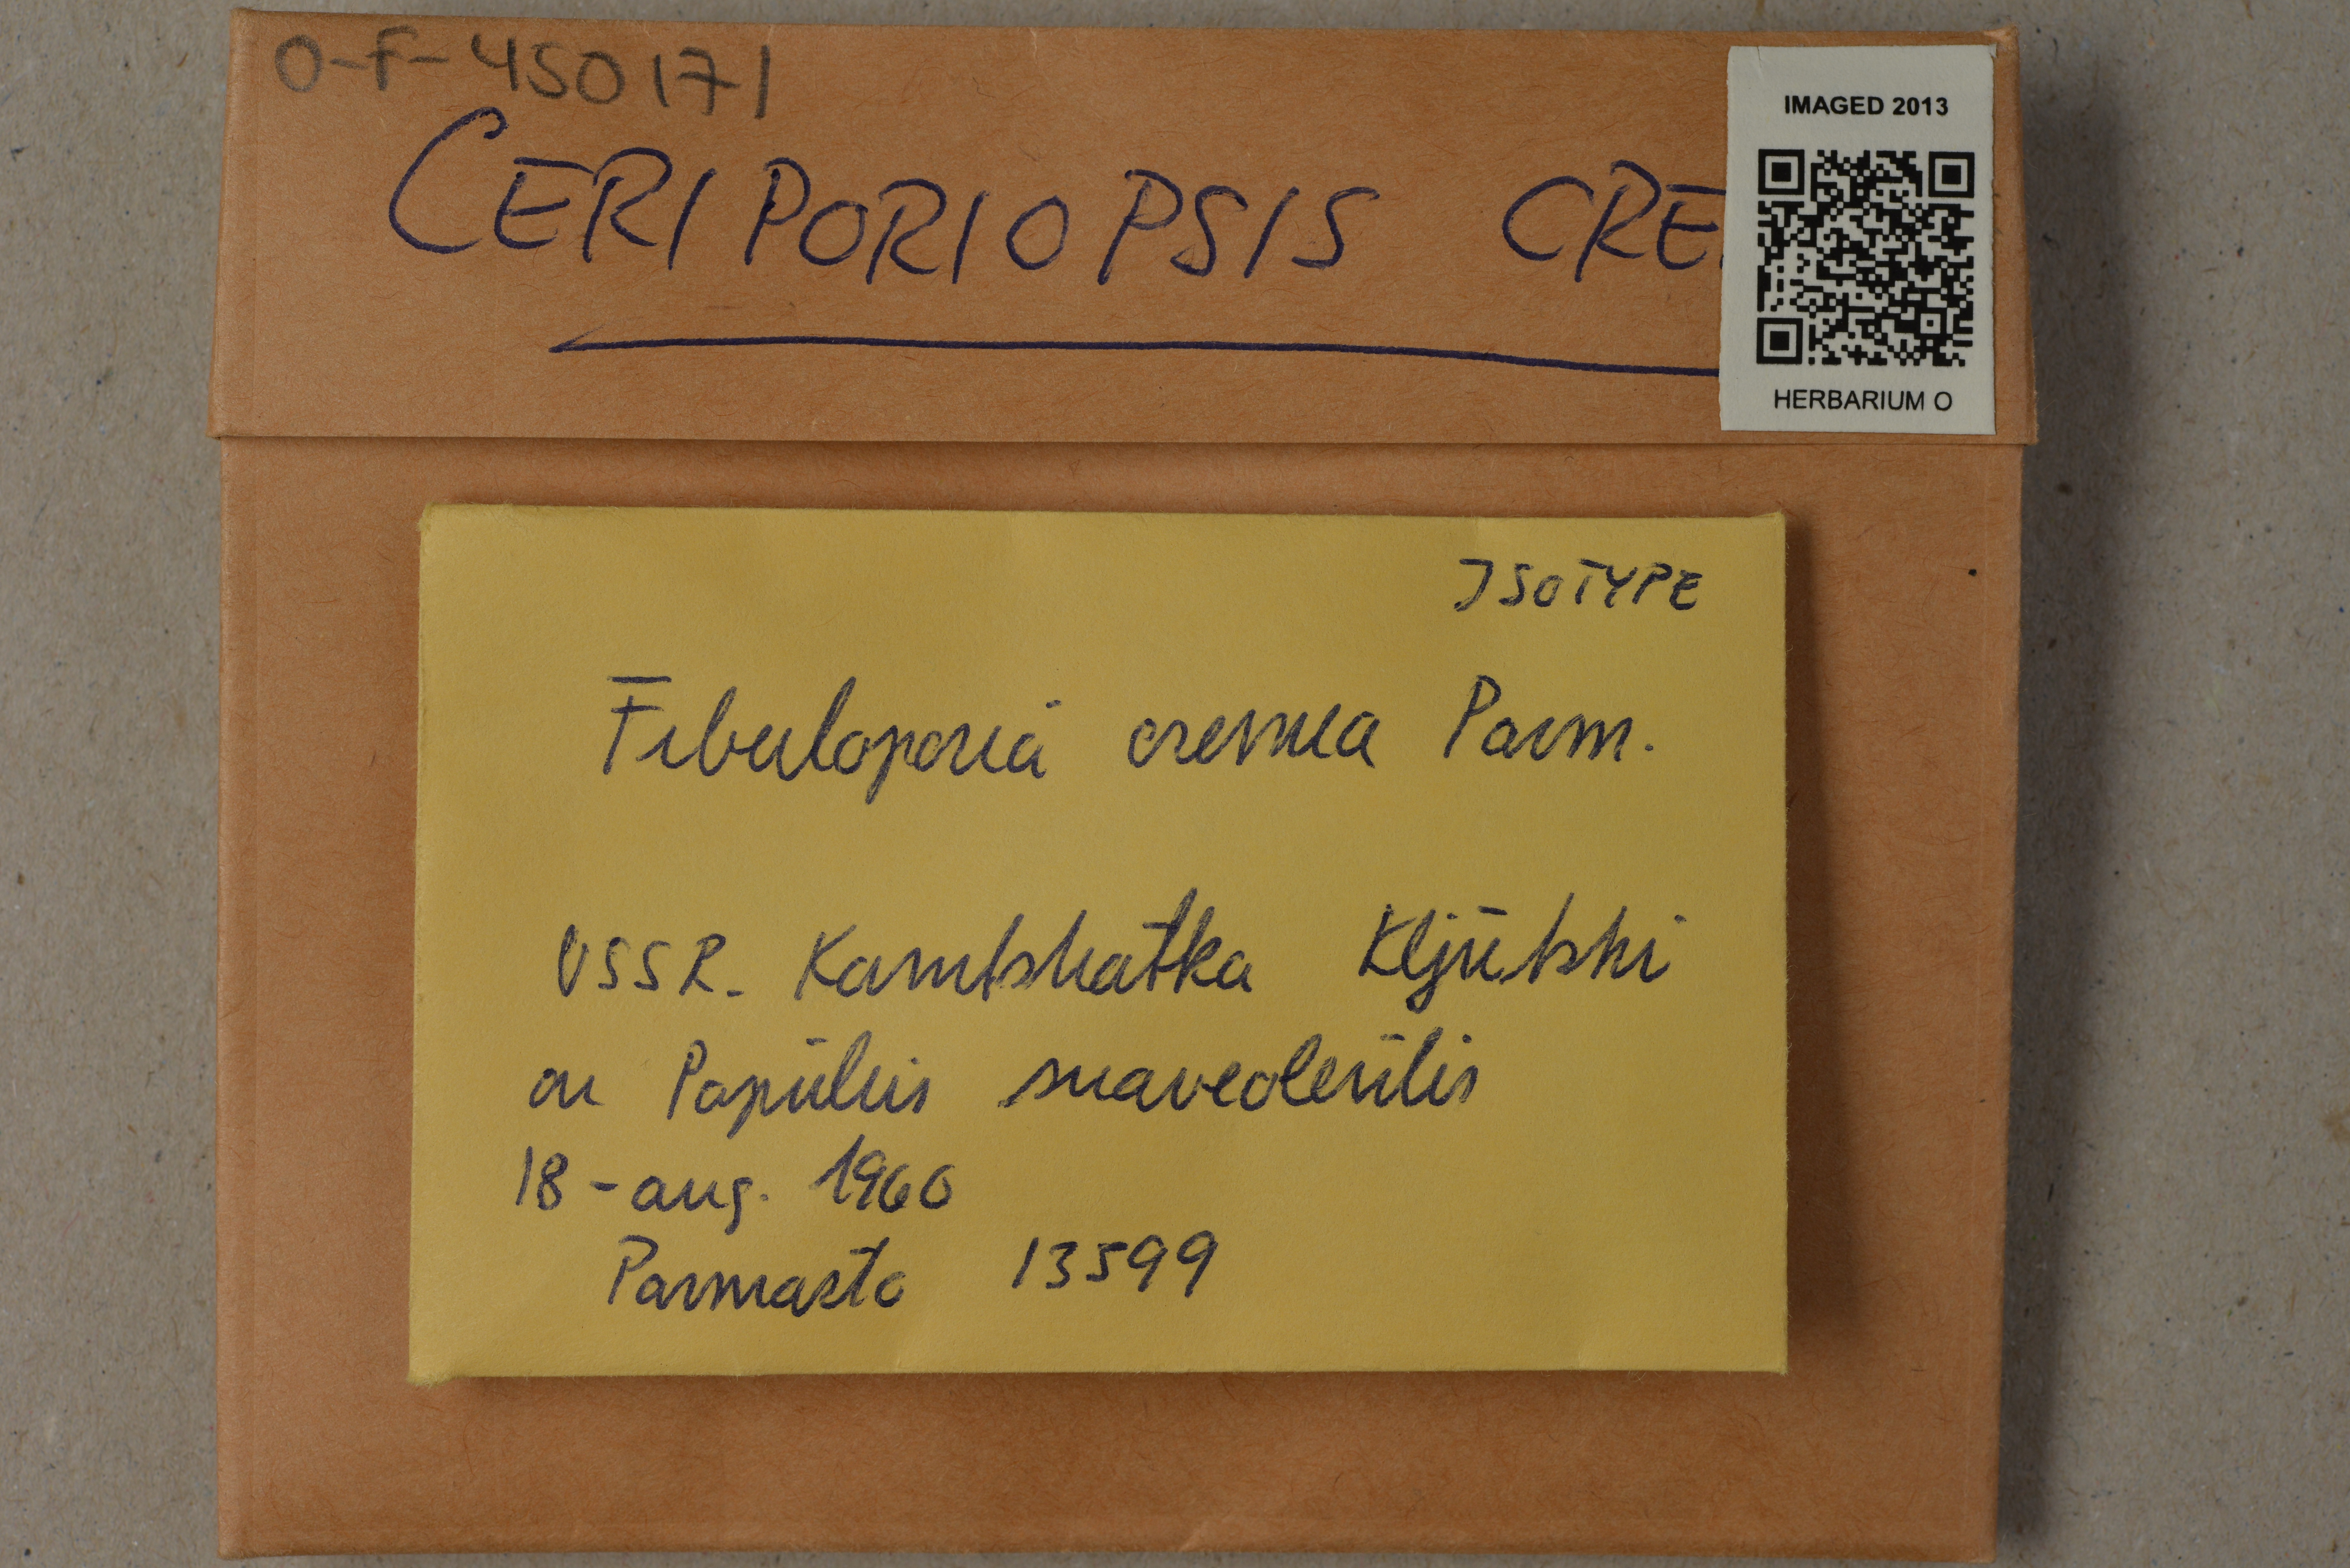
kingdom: Fungi
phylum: Basidiomycota
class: Agaricomycetes
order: Polyporales
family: Steccherinaceae
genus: Niemelaea
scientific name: Niemelaea cremea
